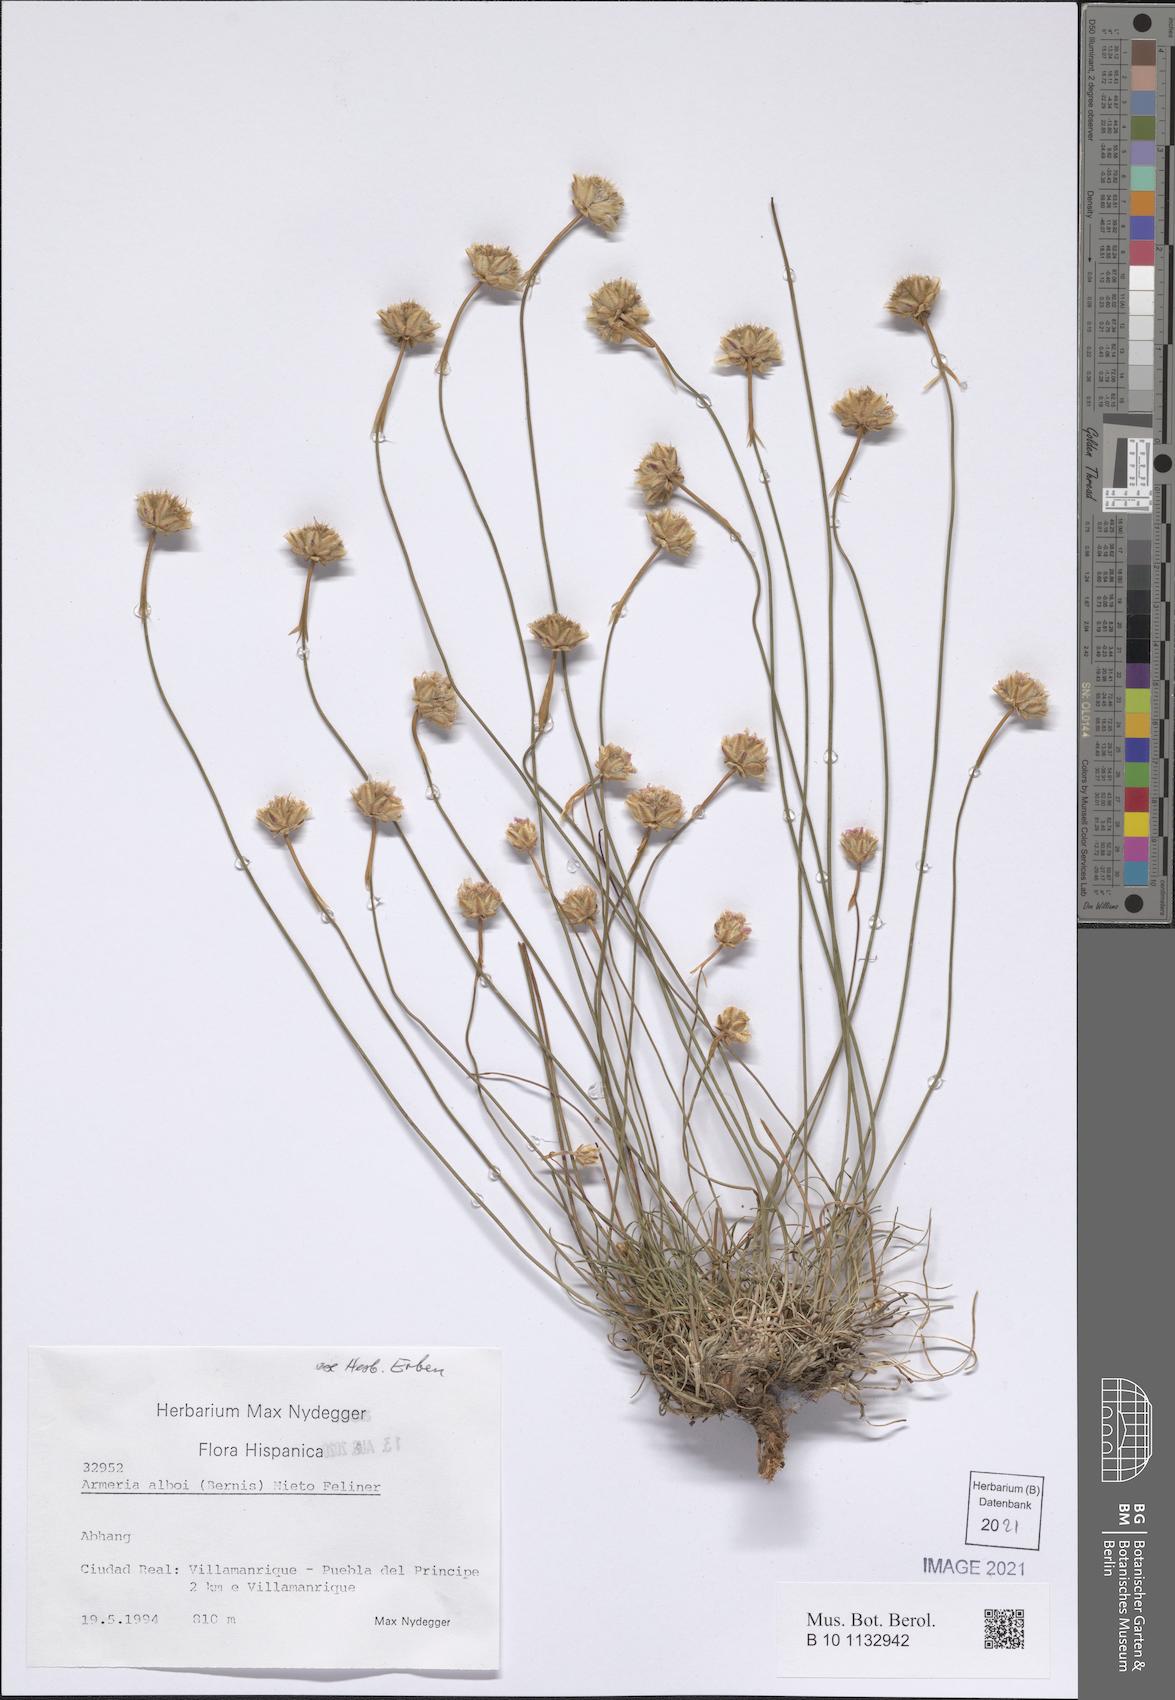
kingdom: Plantae
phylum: Tracheophyta
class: Magnoliopsida
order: Caryophyllales
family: Plumbaginaceae
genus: Armeria
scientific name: Armeria albi
